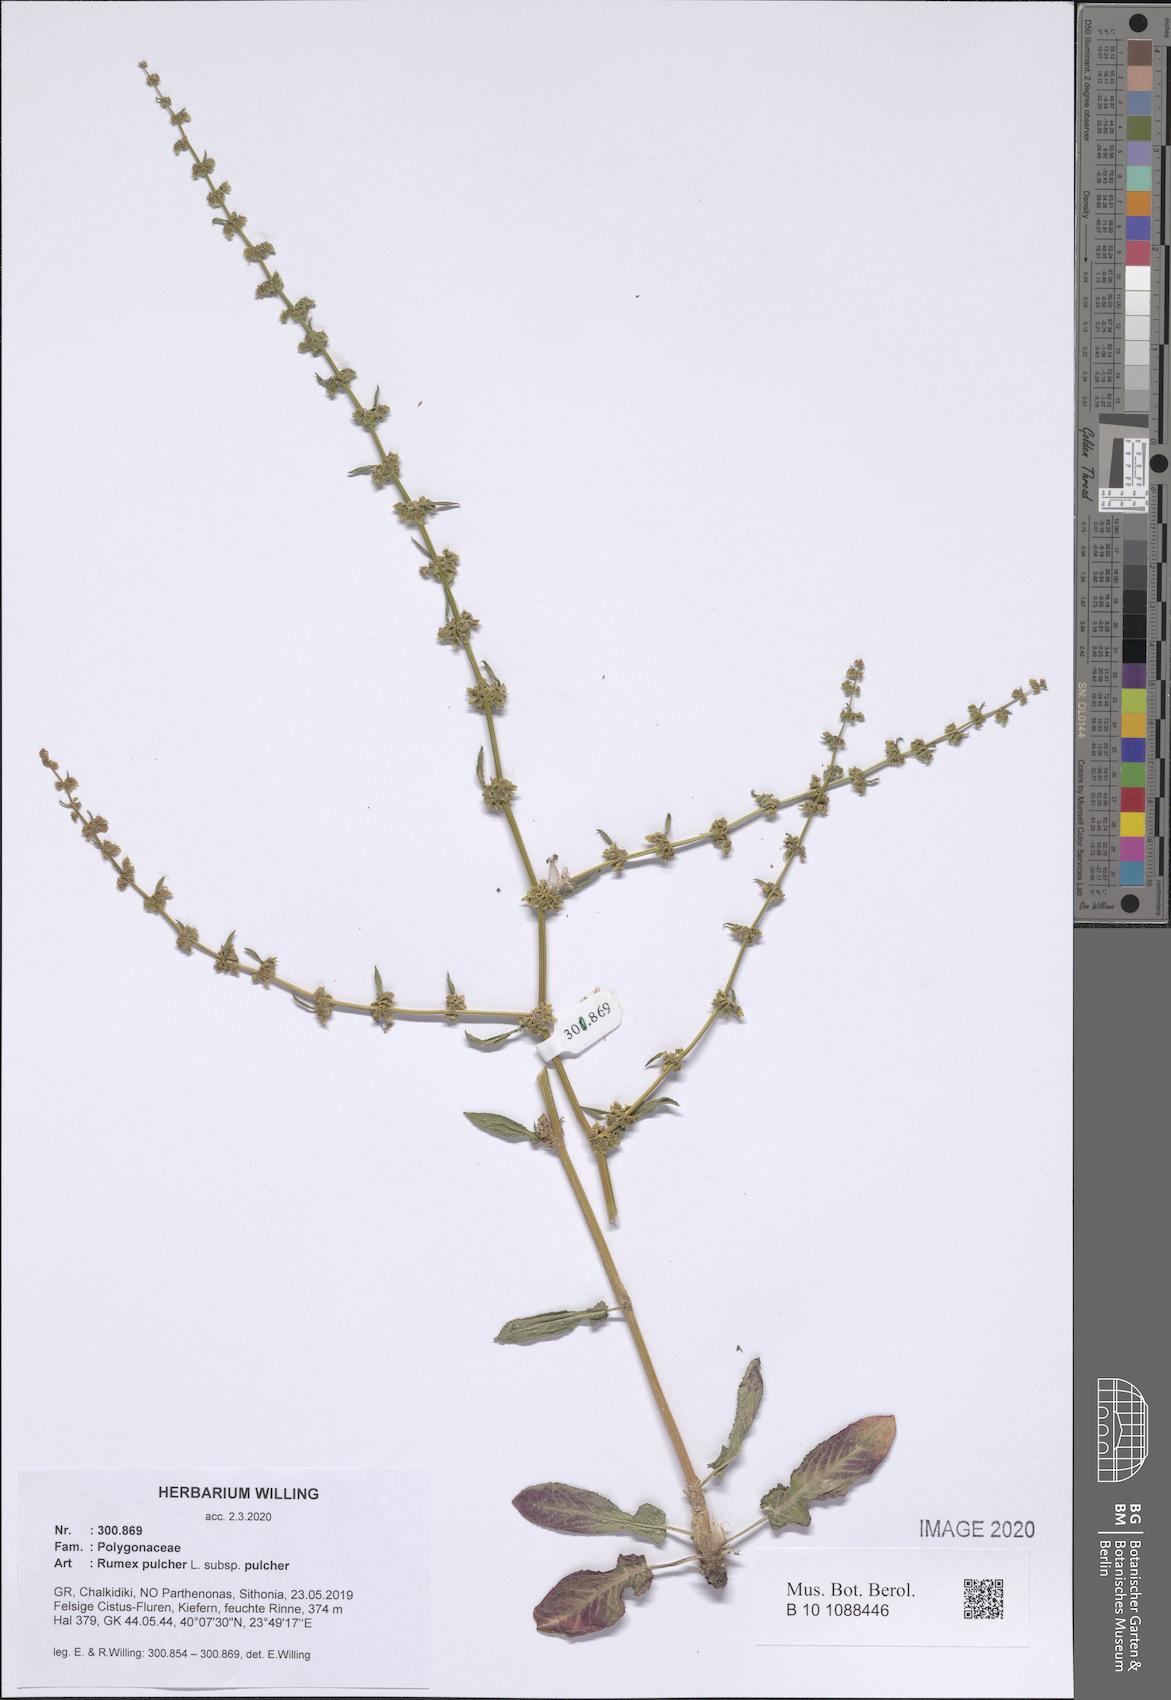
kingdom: Plantae
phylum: Tracheophyta
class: Magnoliopsida
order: Caryophyllales
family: Polygonaceae
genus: Rumex
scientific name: Rumex pulcher
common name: Fiddle dock
